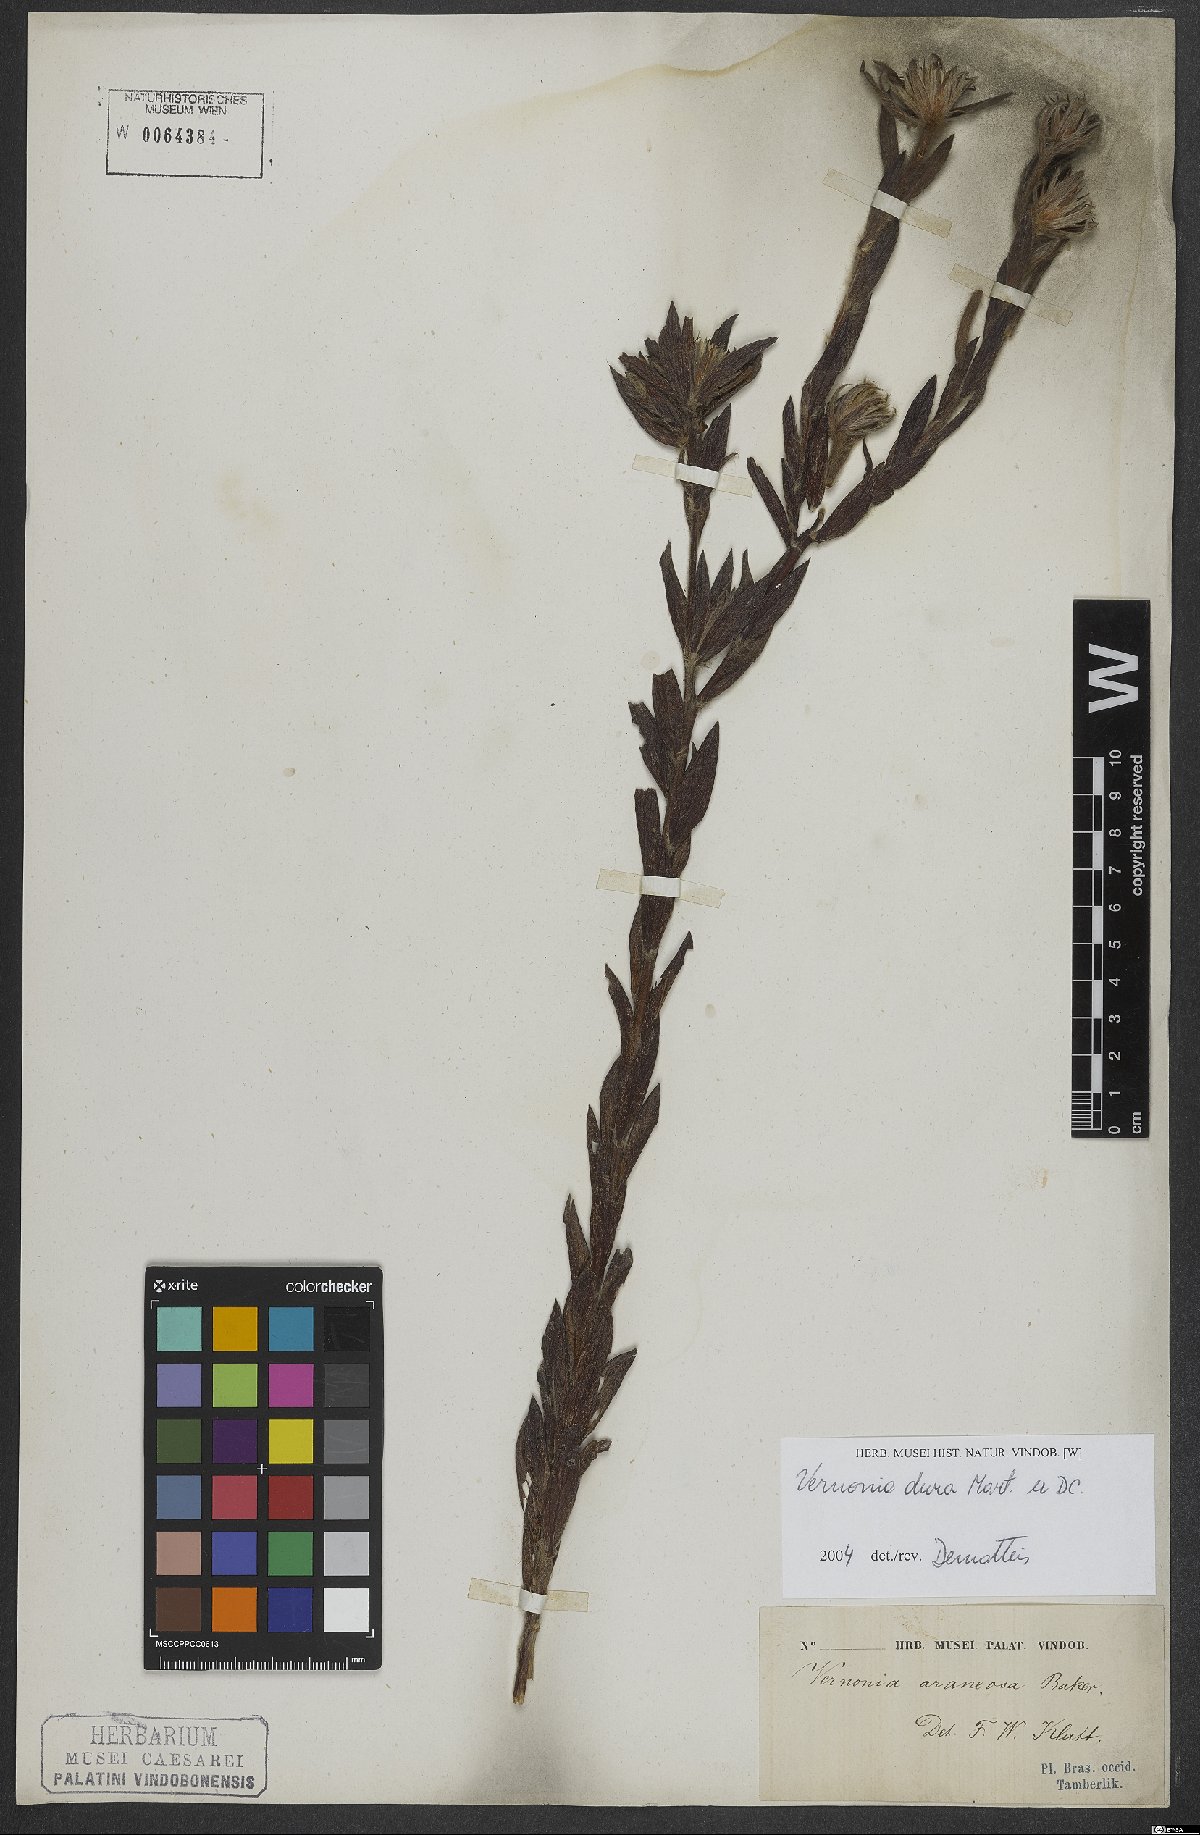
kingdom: Plantae
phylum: Tracheophyta
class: Magnoliopsida
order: Asterales
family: Asteraceae
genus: Lessingianthus
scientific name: Lessingianthus durus
